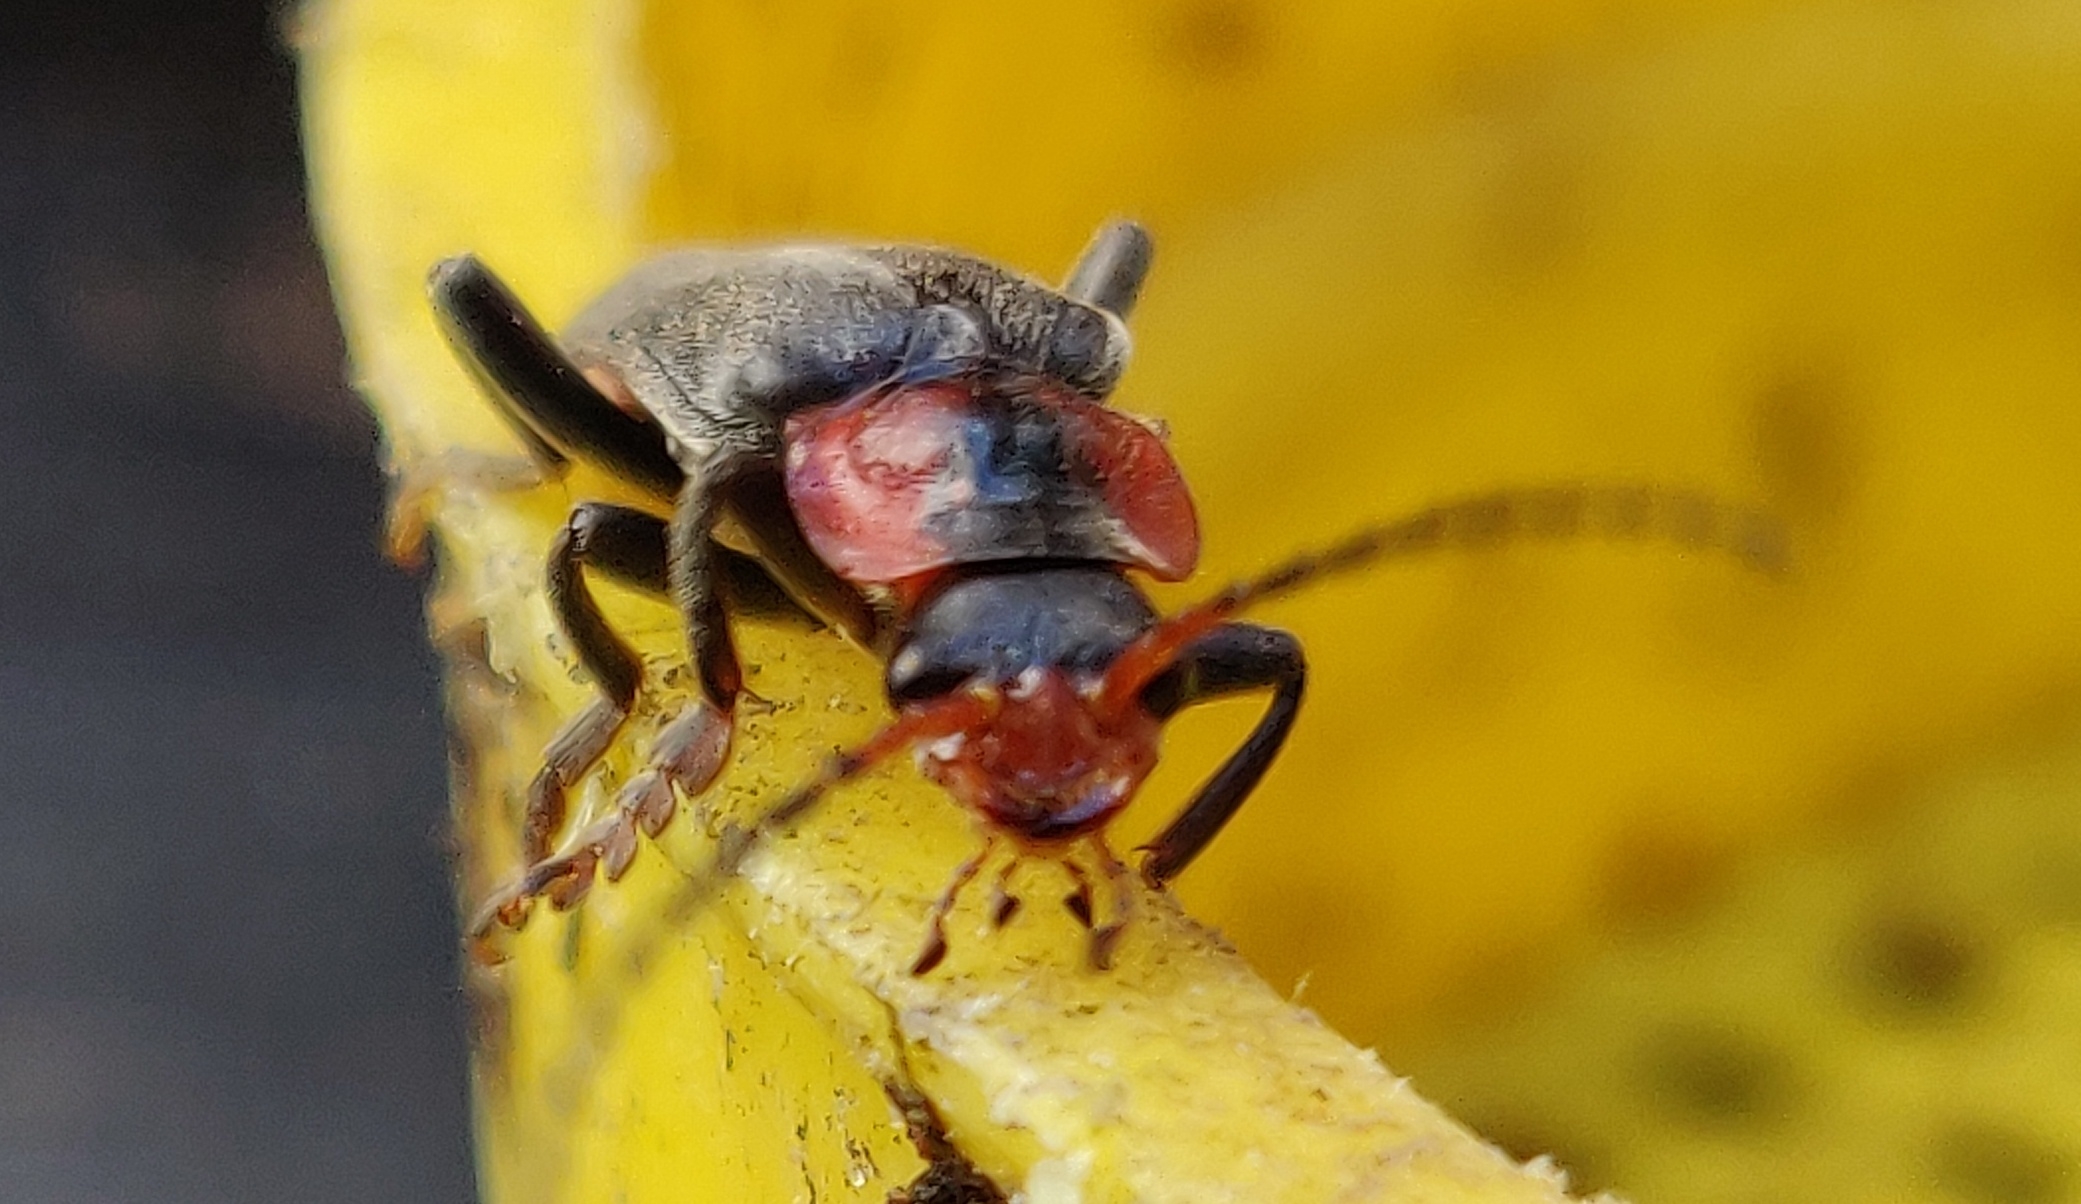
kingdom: Animalia
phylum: Arthropoda
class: Insecta
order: Coleoptera
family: Cantharidae
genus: Cantharis
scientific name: Cantharis fusca
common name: Stor blødvinge
